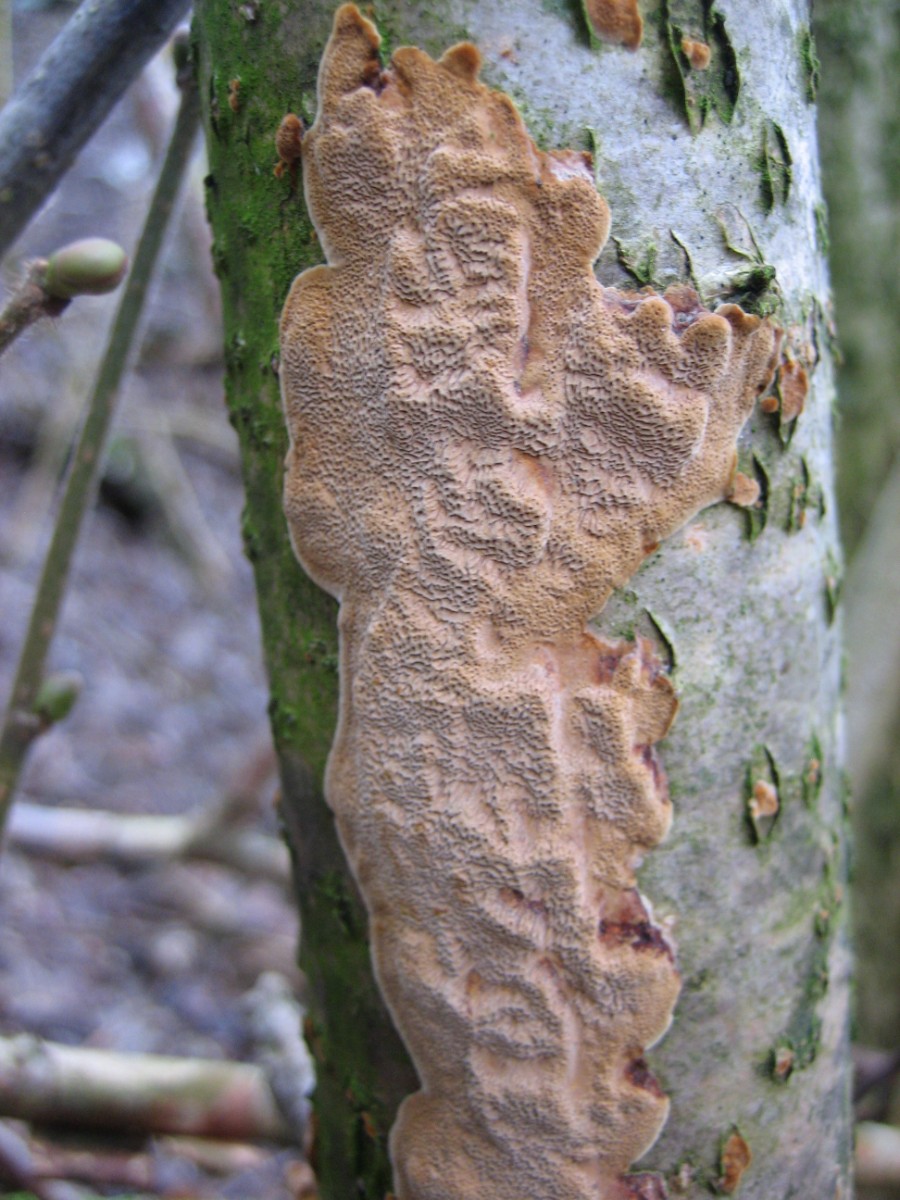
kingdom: Fungi
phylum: Basidiomycota
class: Agaricomycetes
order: Hymenochaetales
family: Hymenochaetaceae
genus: Fuscoporia
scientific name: Fuscoporia ferrea
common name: skorpe-ildporesvamp
